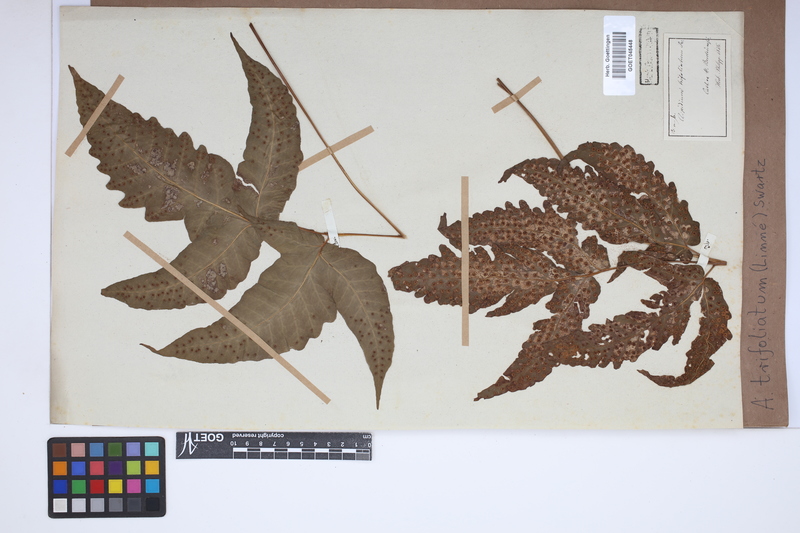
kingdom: Plantae
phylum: Tracheophyta
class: Polypodiopsida
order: Polypodiales
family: Tectariaceae
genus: Tectaria
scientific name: Tectaria trifoliata
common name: Threeleaf halberd fern
